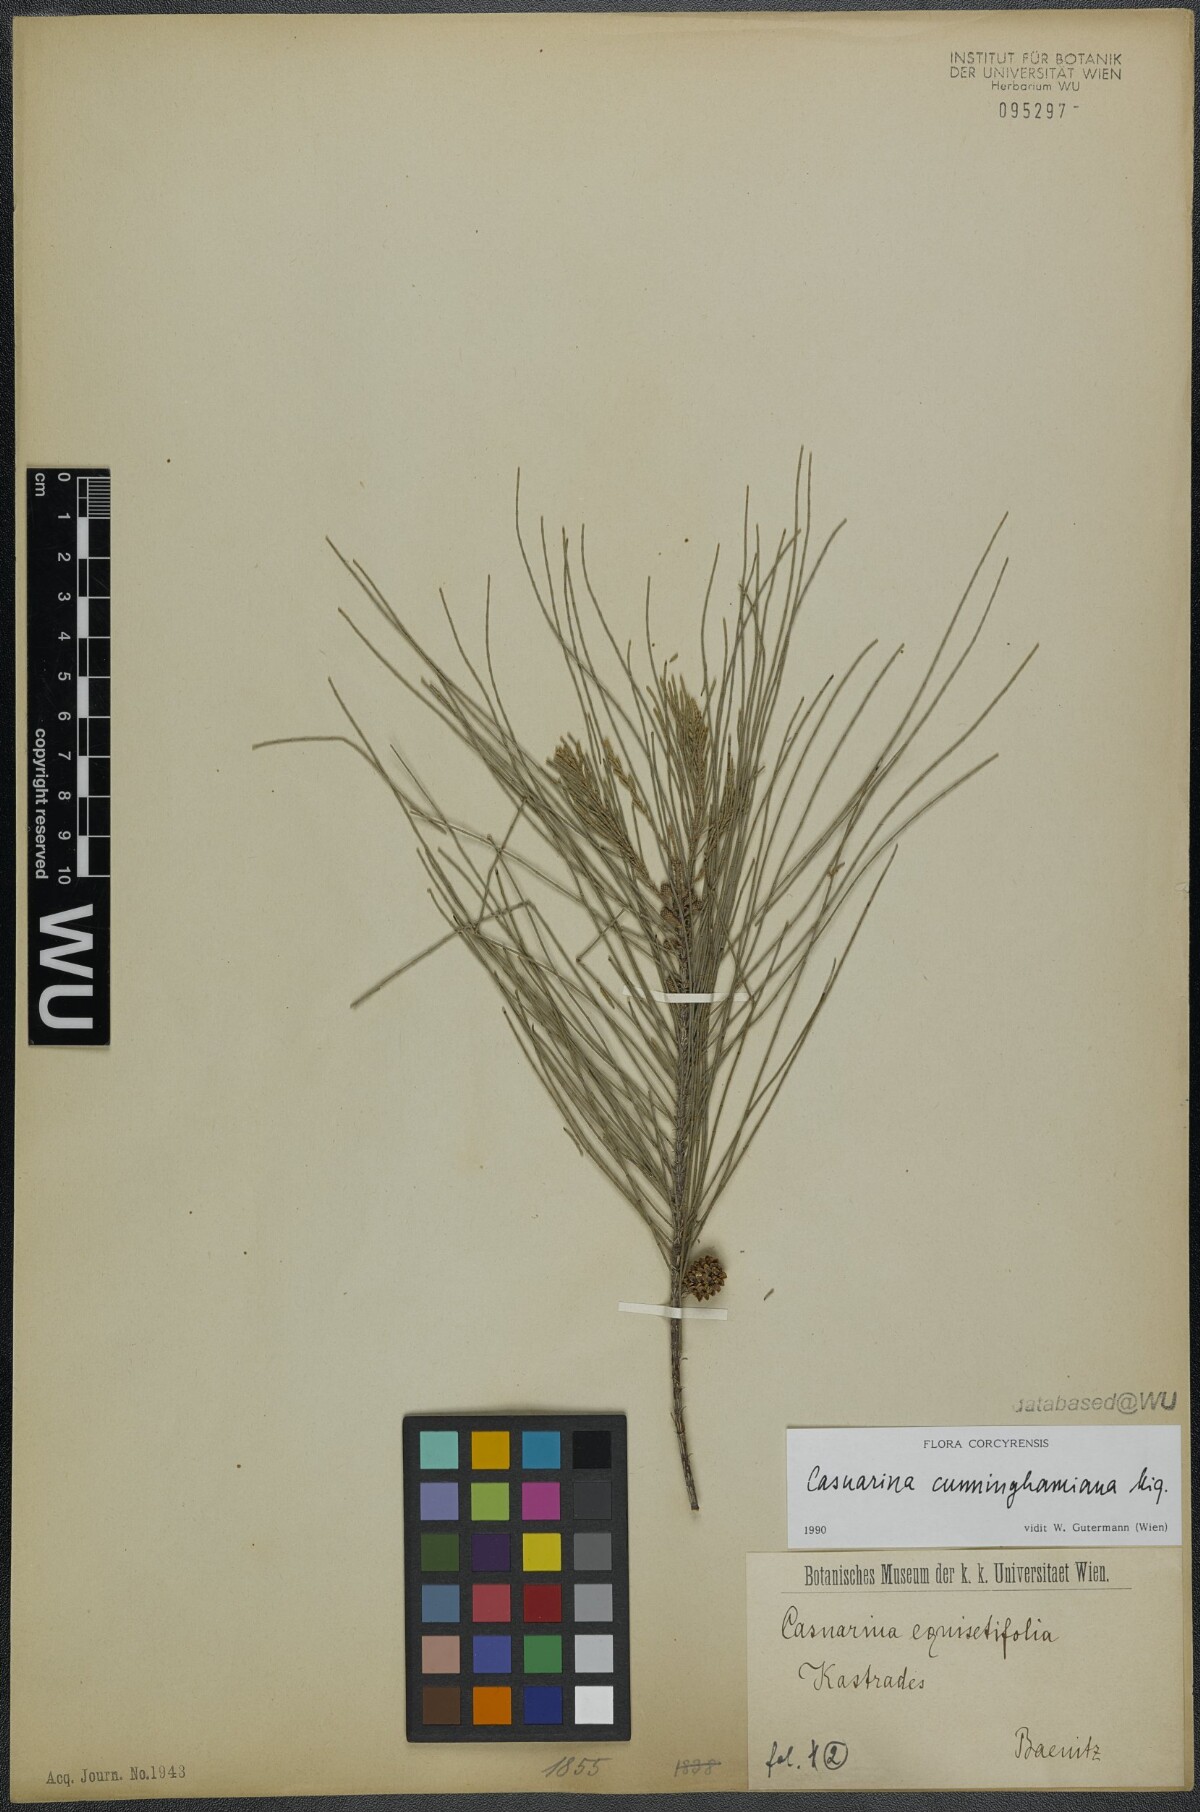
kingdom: Plantae
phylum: Tracheophyta
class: Magnoliopsida
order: Fagales
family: Casuarinaceae
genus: Casuarina
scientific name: Casuarina cunninghamiana
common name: River sheoak
